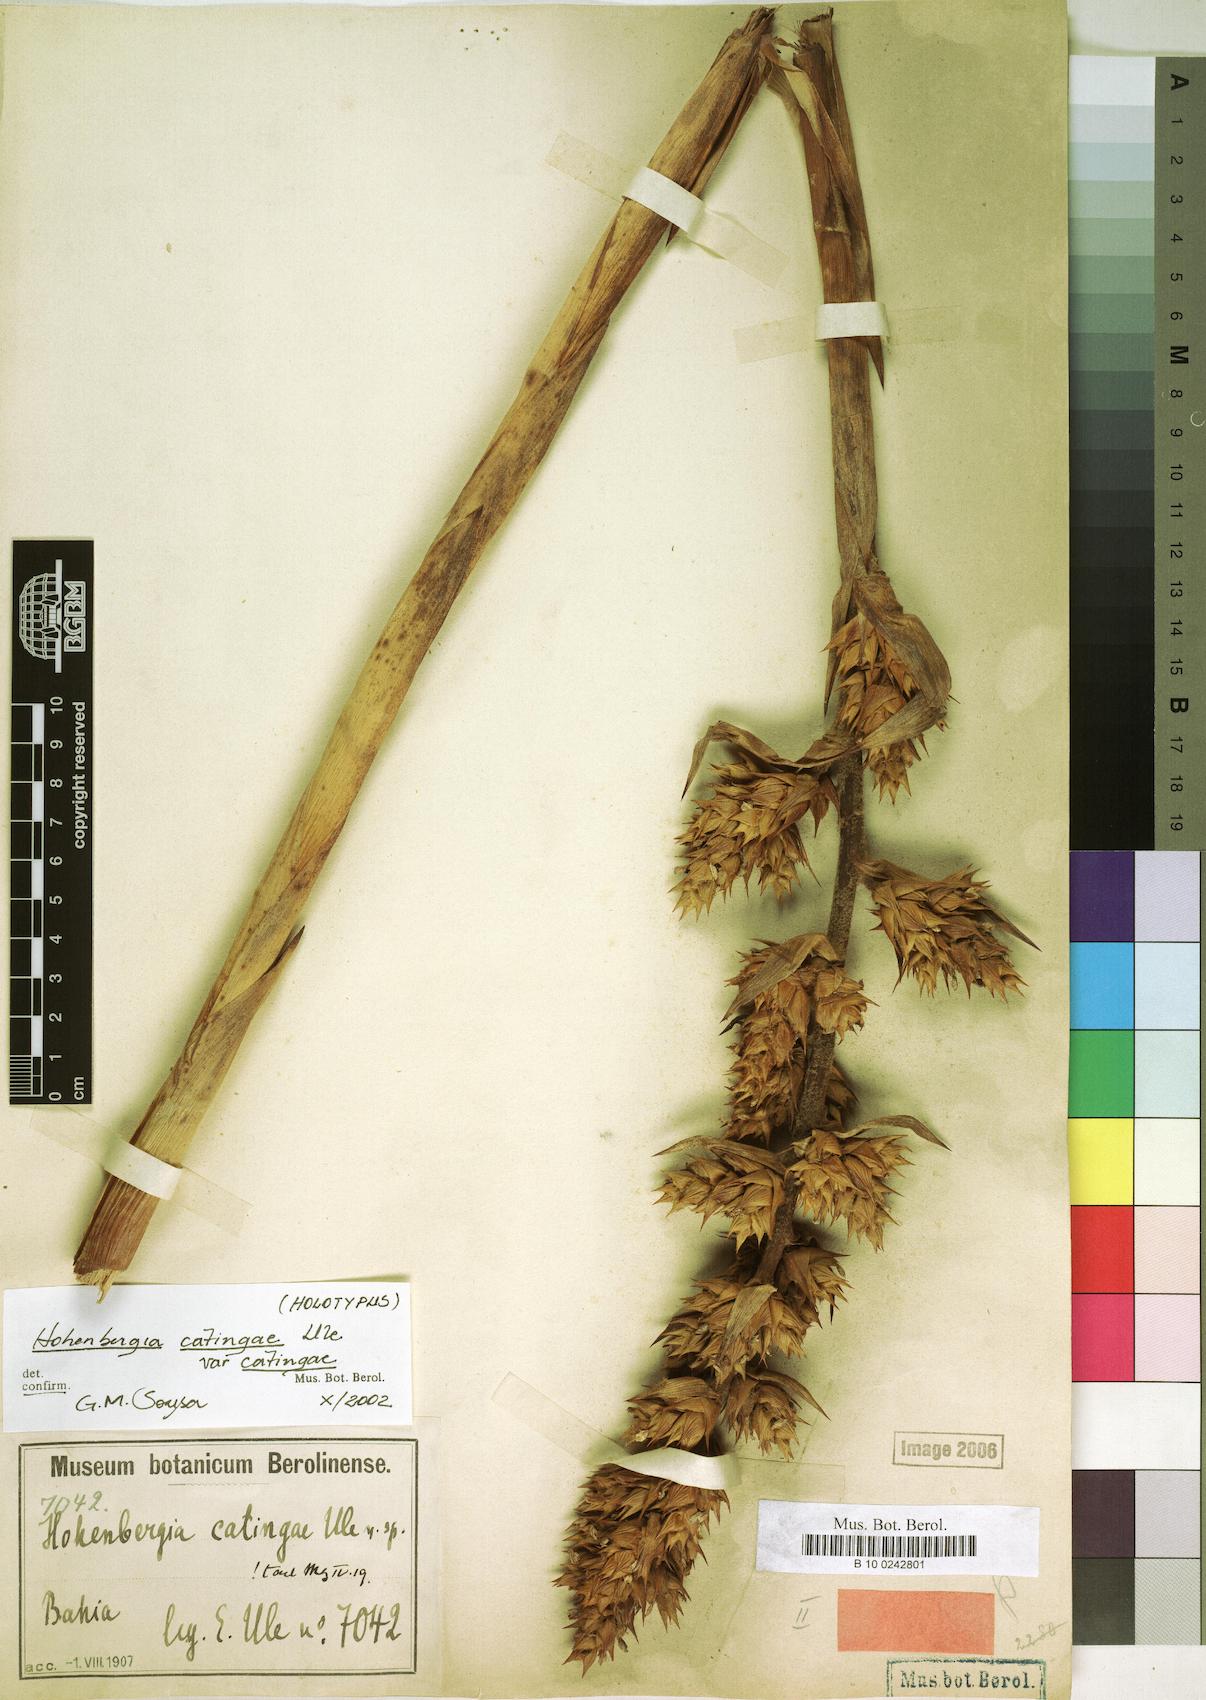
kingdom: Plantae
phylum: Tracheophyta
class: Liliopsida
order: Poales
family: Bromeliaceae
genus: Hohenbergia
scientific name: Hohenbergia catingae
